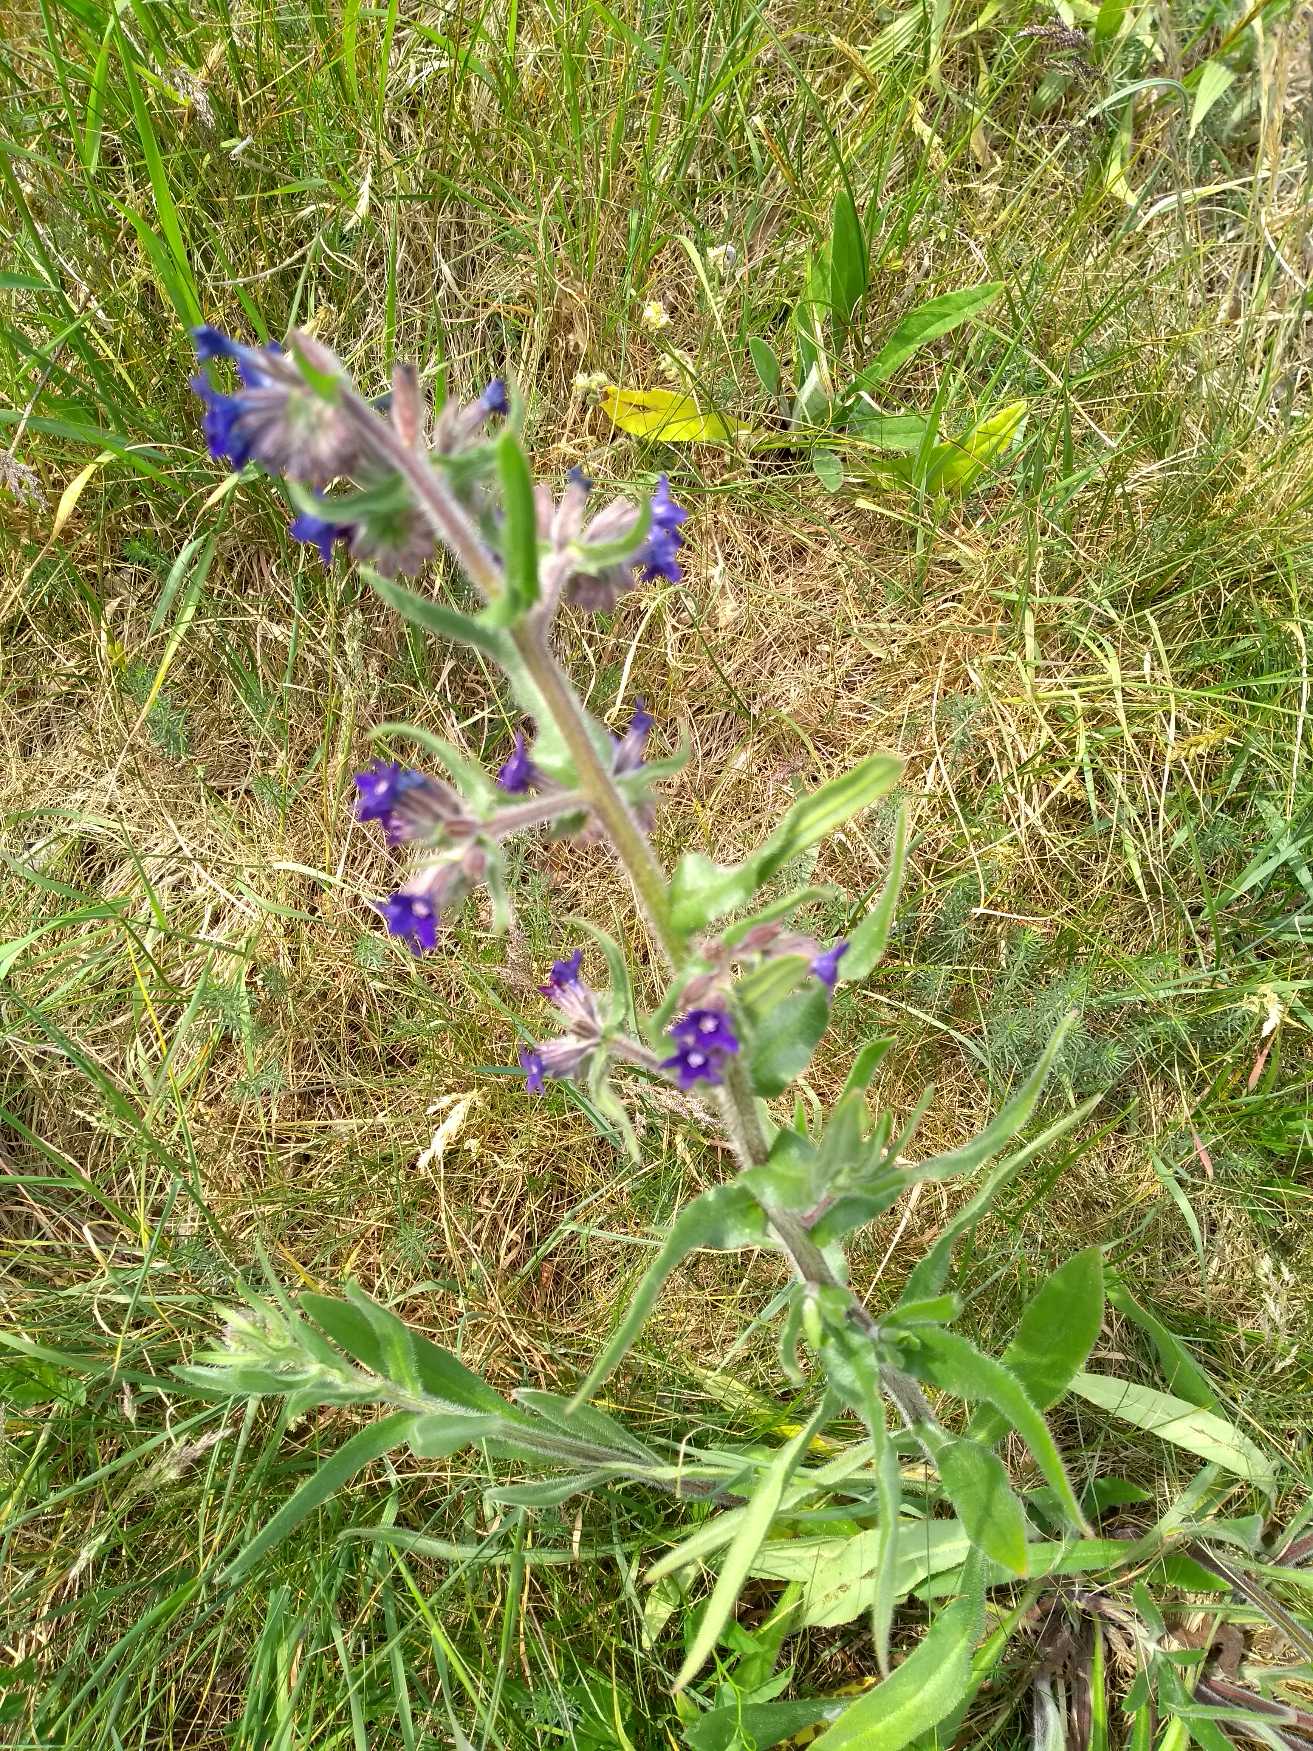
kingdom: Plantae
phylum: Tracheophyta
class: Magnoliopsida
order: Boraginales
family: Boraginaceae
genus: Anchusa
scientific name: Anchusa officinalis
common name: Læge-oksetunge
